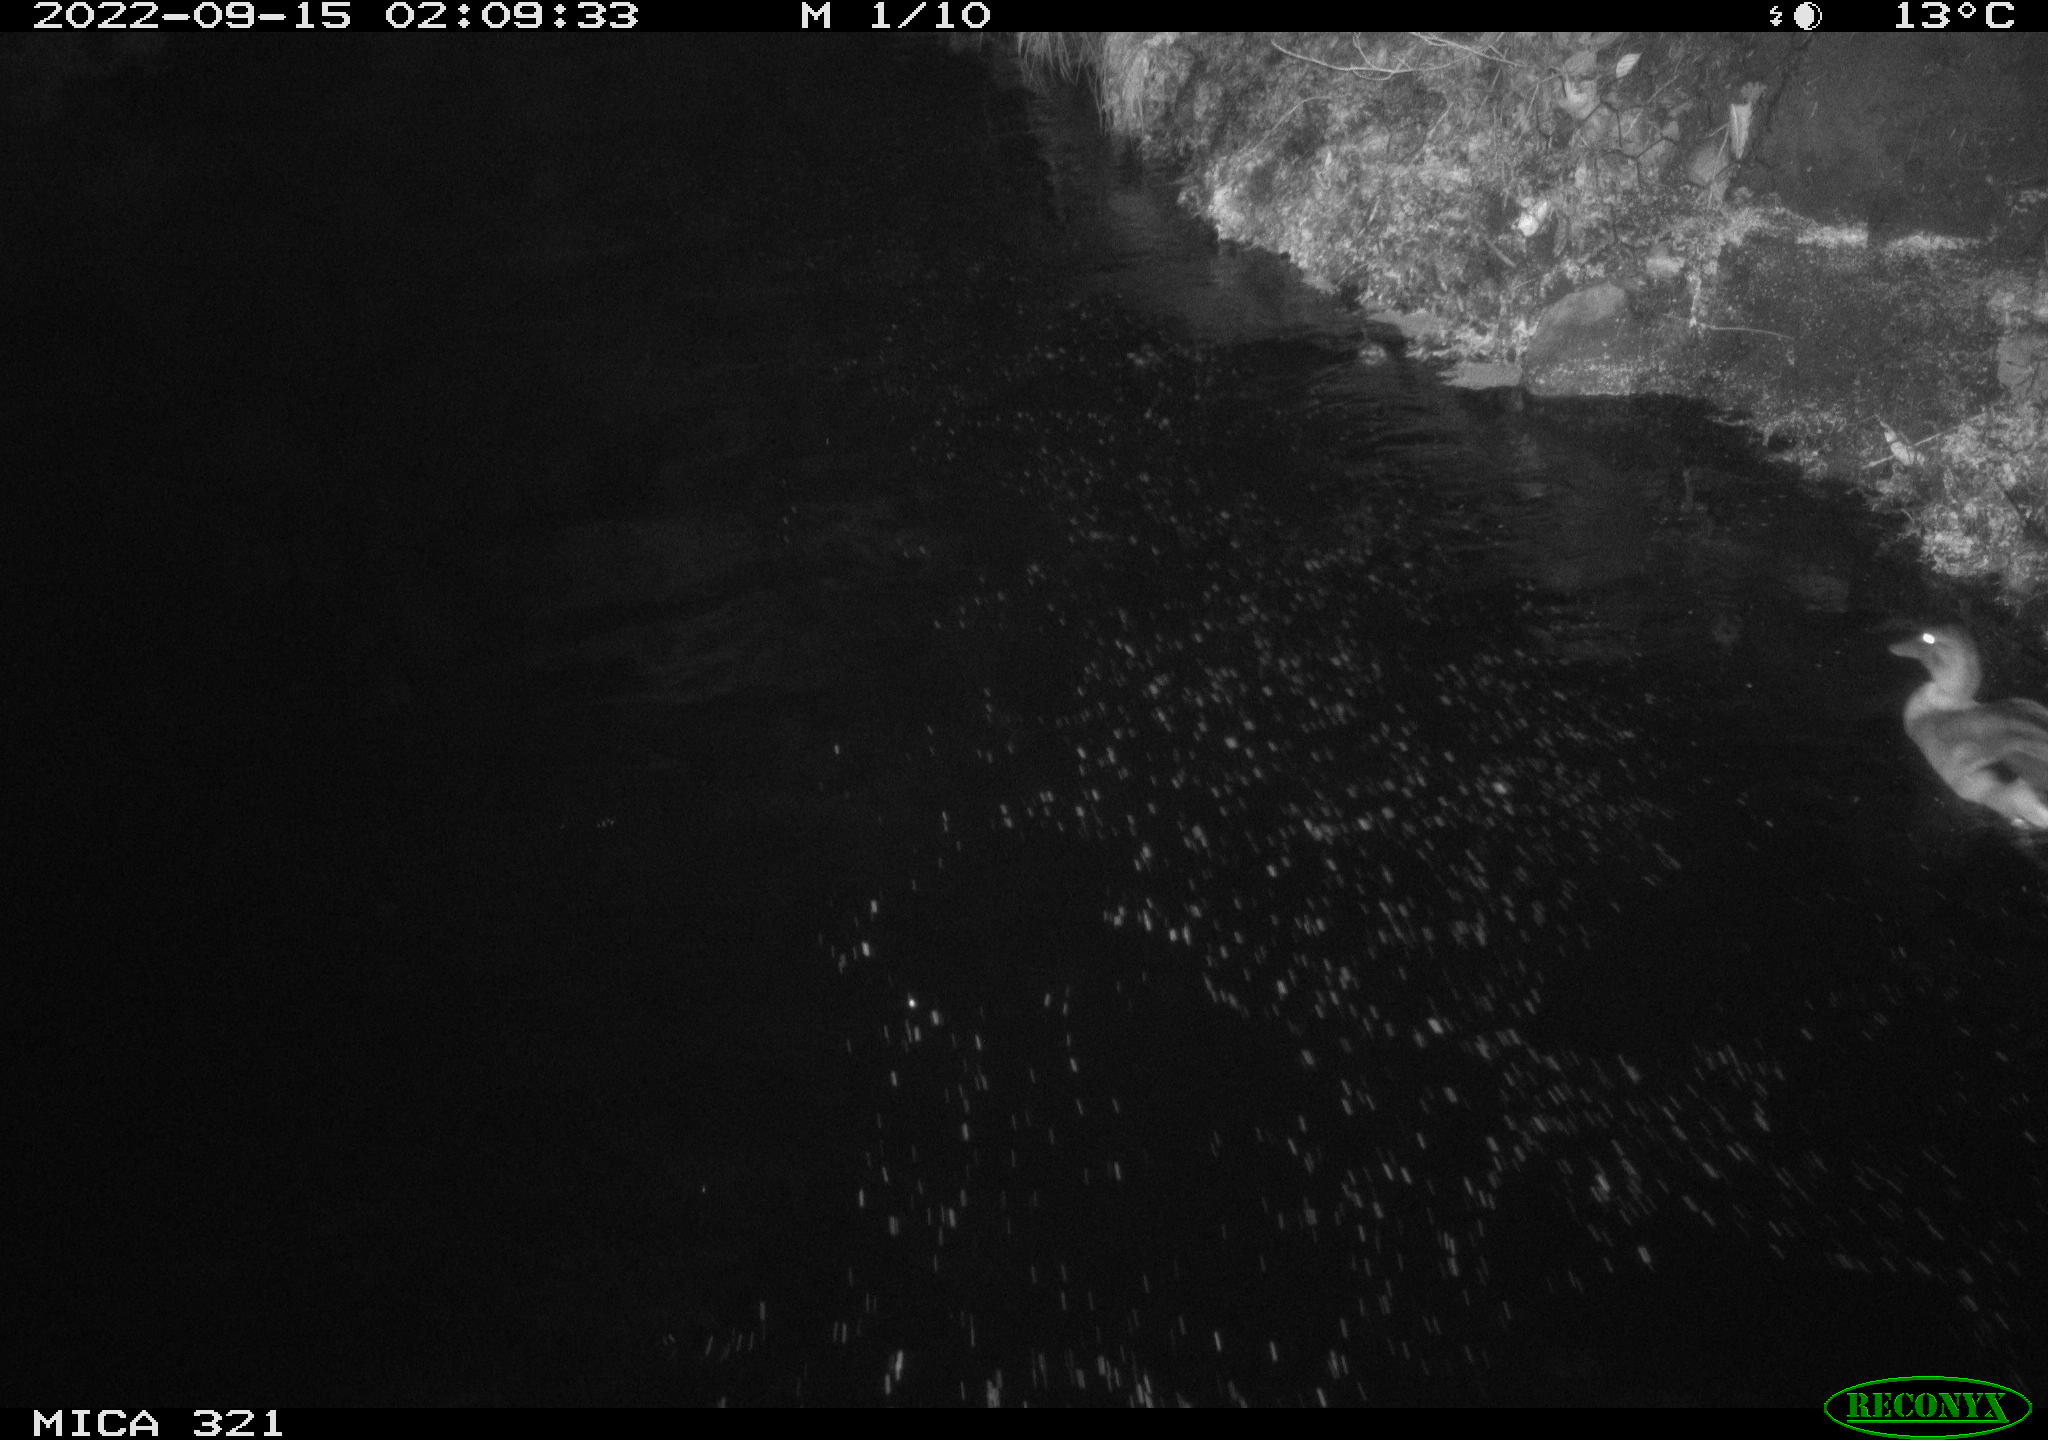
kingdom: Animalia
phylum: Chordata
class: Aves
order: Anseriformes
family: Anatidae
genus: Anas
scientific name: Anas
